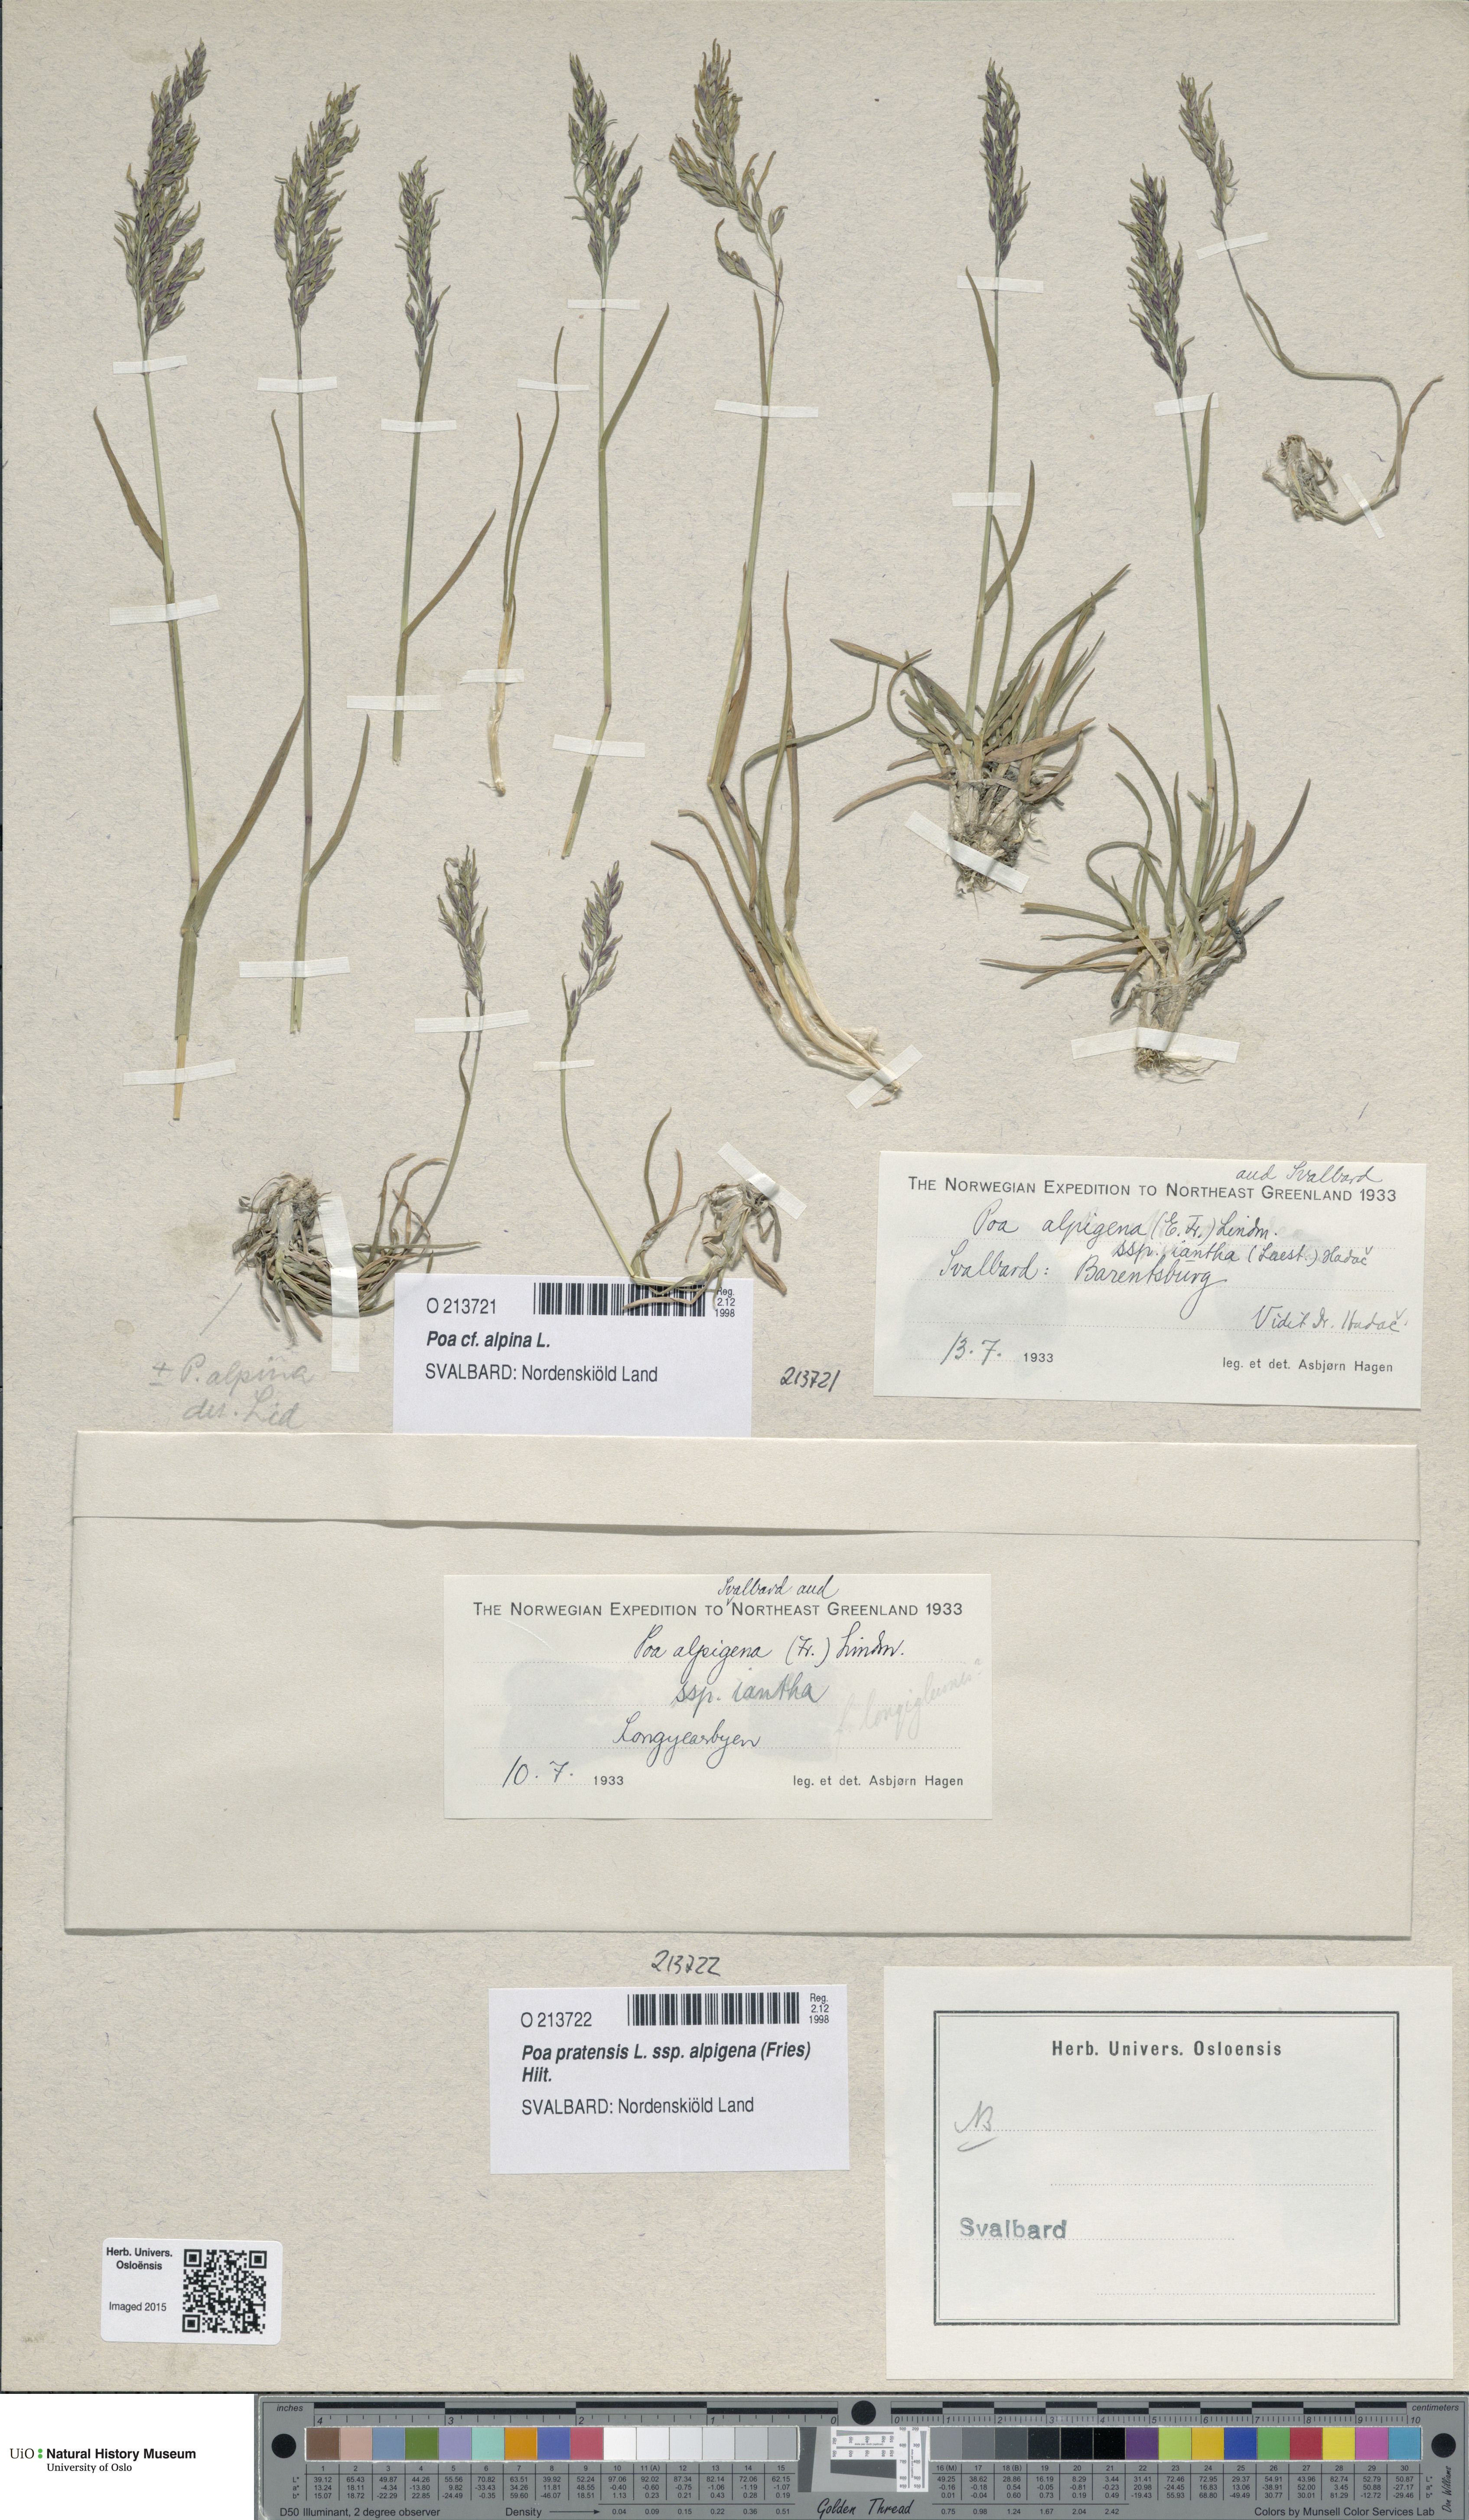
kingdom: Plantae
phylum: Tracheophyta
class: Liliopsida
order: Poales
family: Poaceae
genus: Poa
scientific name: Poa alpigena
